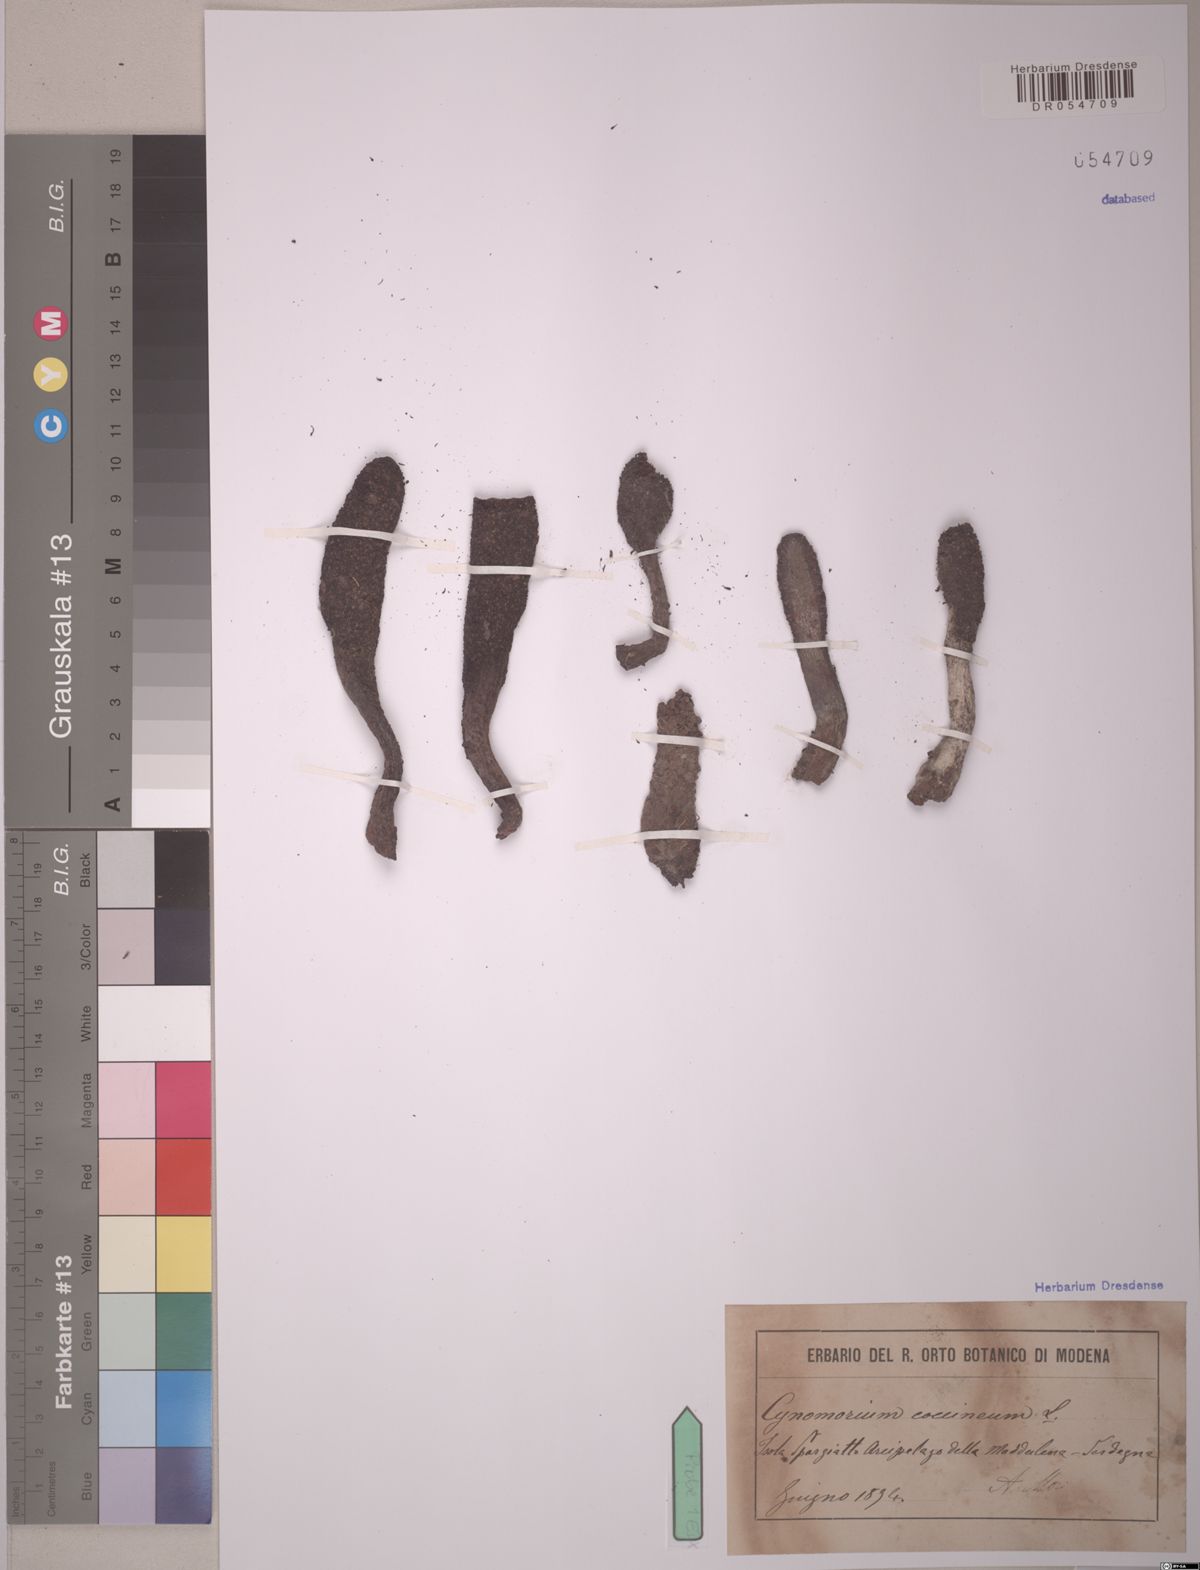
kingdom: Plantae
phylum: Tracheophyta
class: Magnoliopsida
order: Saxifragales
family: Cynomoriaceae
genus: Cynomorium
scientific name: Cynomorium coccineum
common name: Maltese-mushroom
